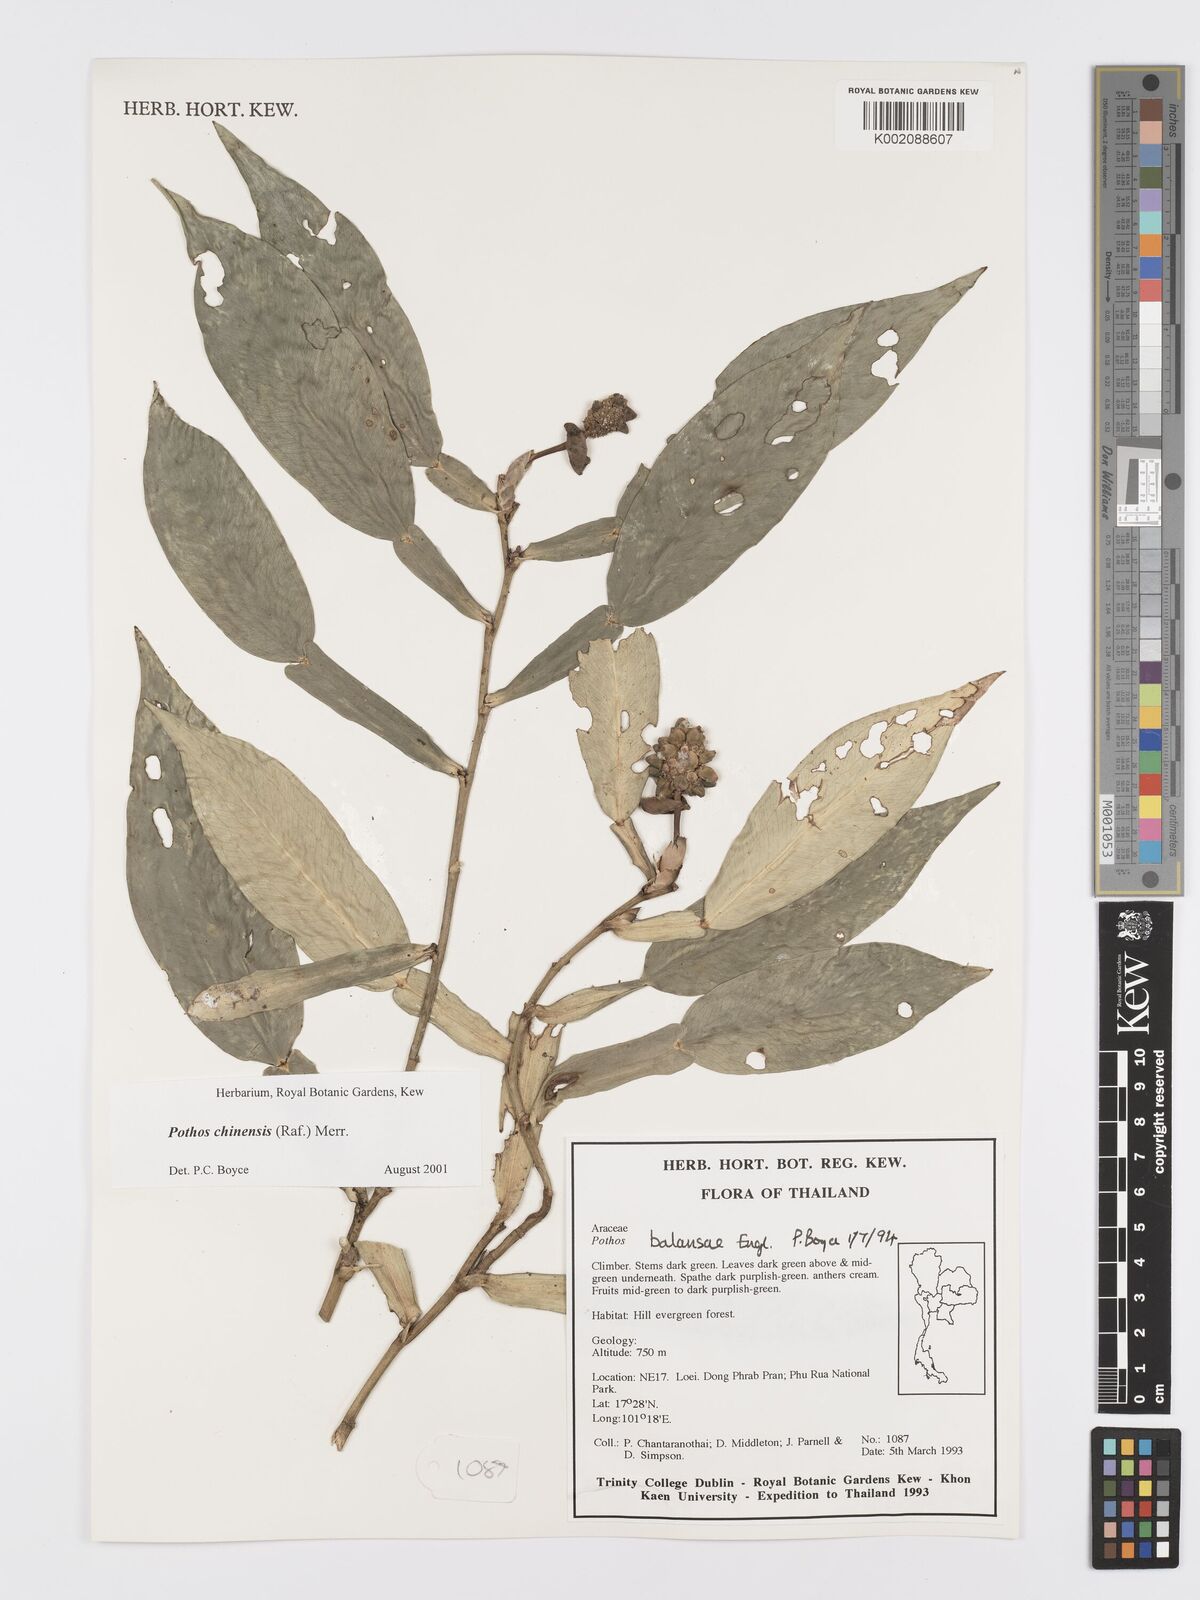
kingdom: Plantae
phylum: Tracheophyta
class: Liliopsida
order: Alismatales
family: Araceae
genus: Pothos
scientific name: Pothos chinensis
